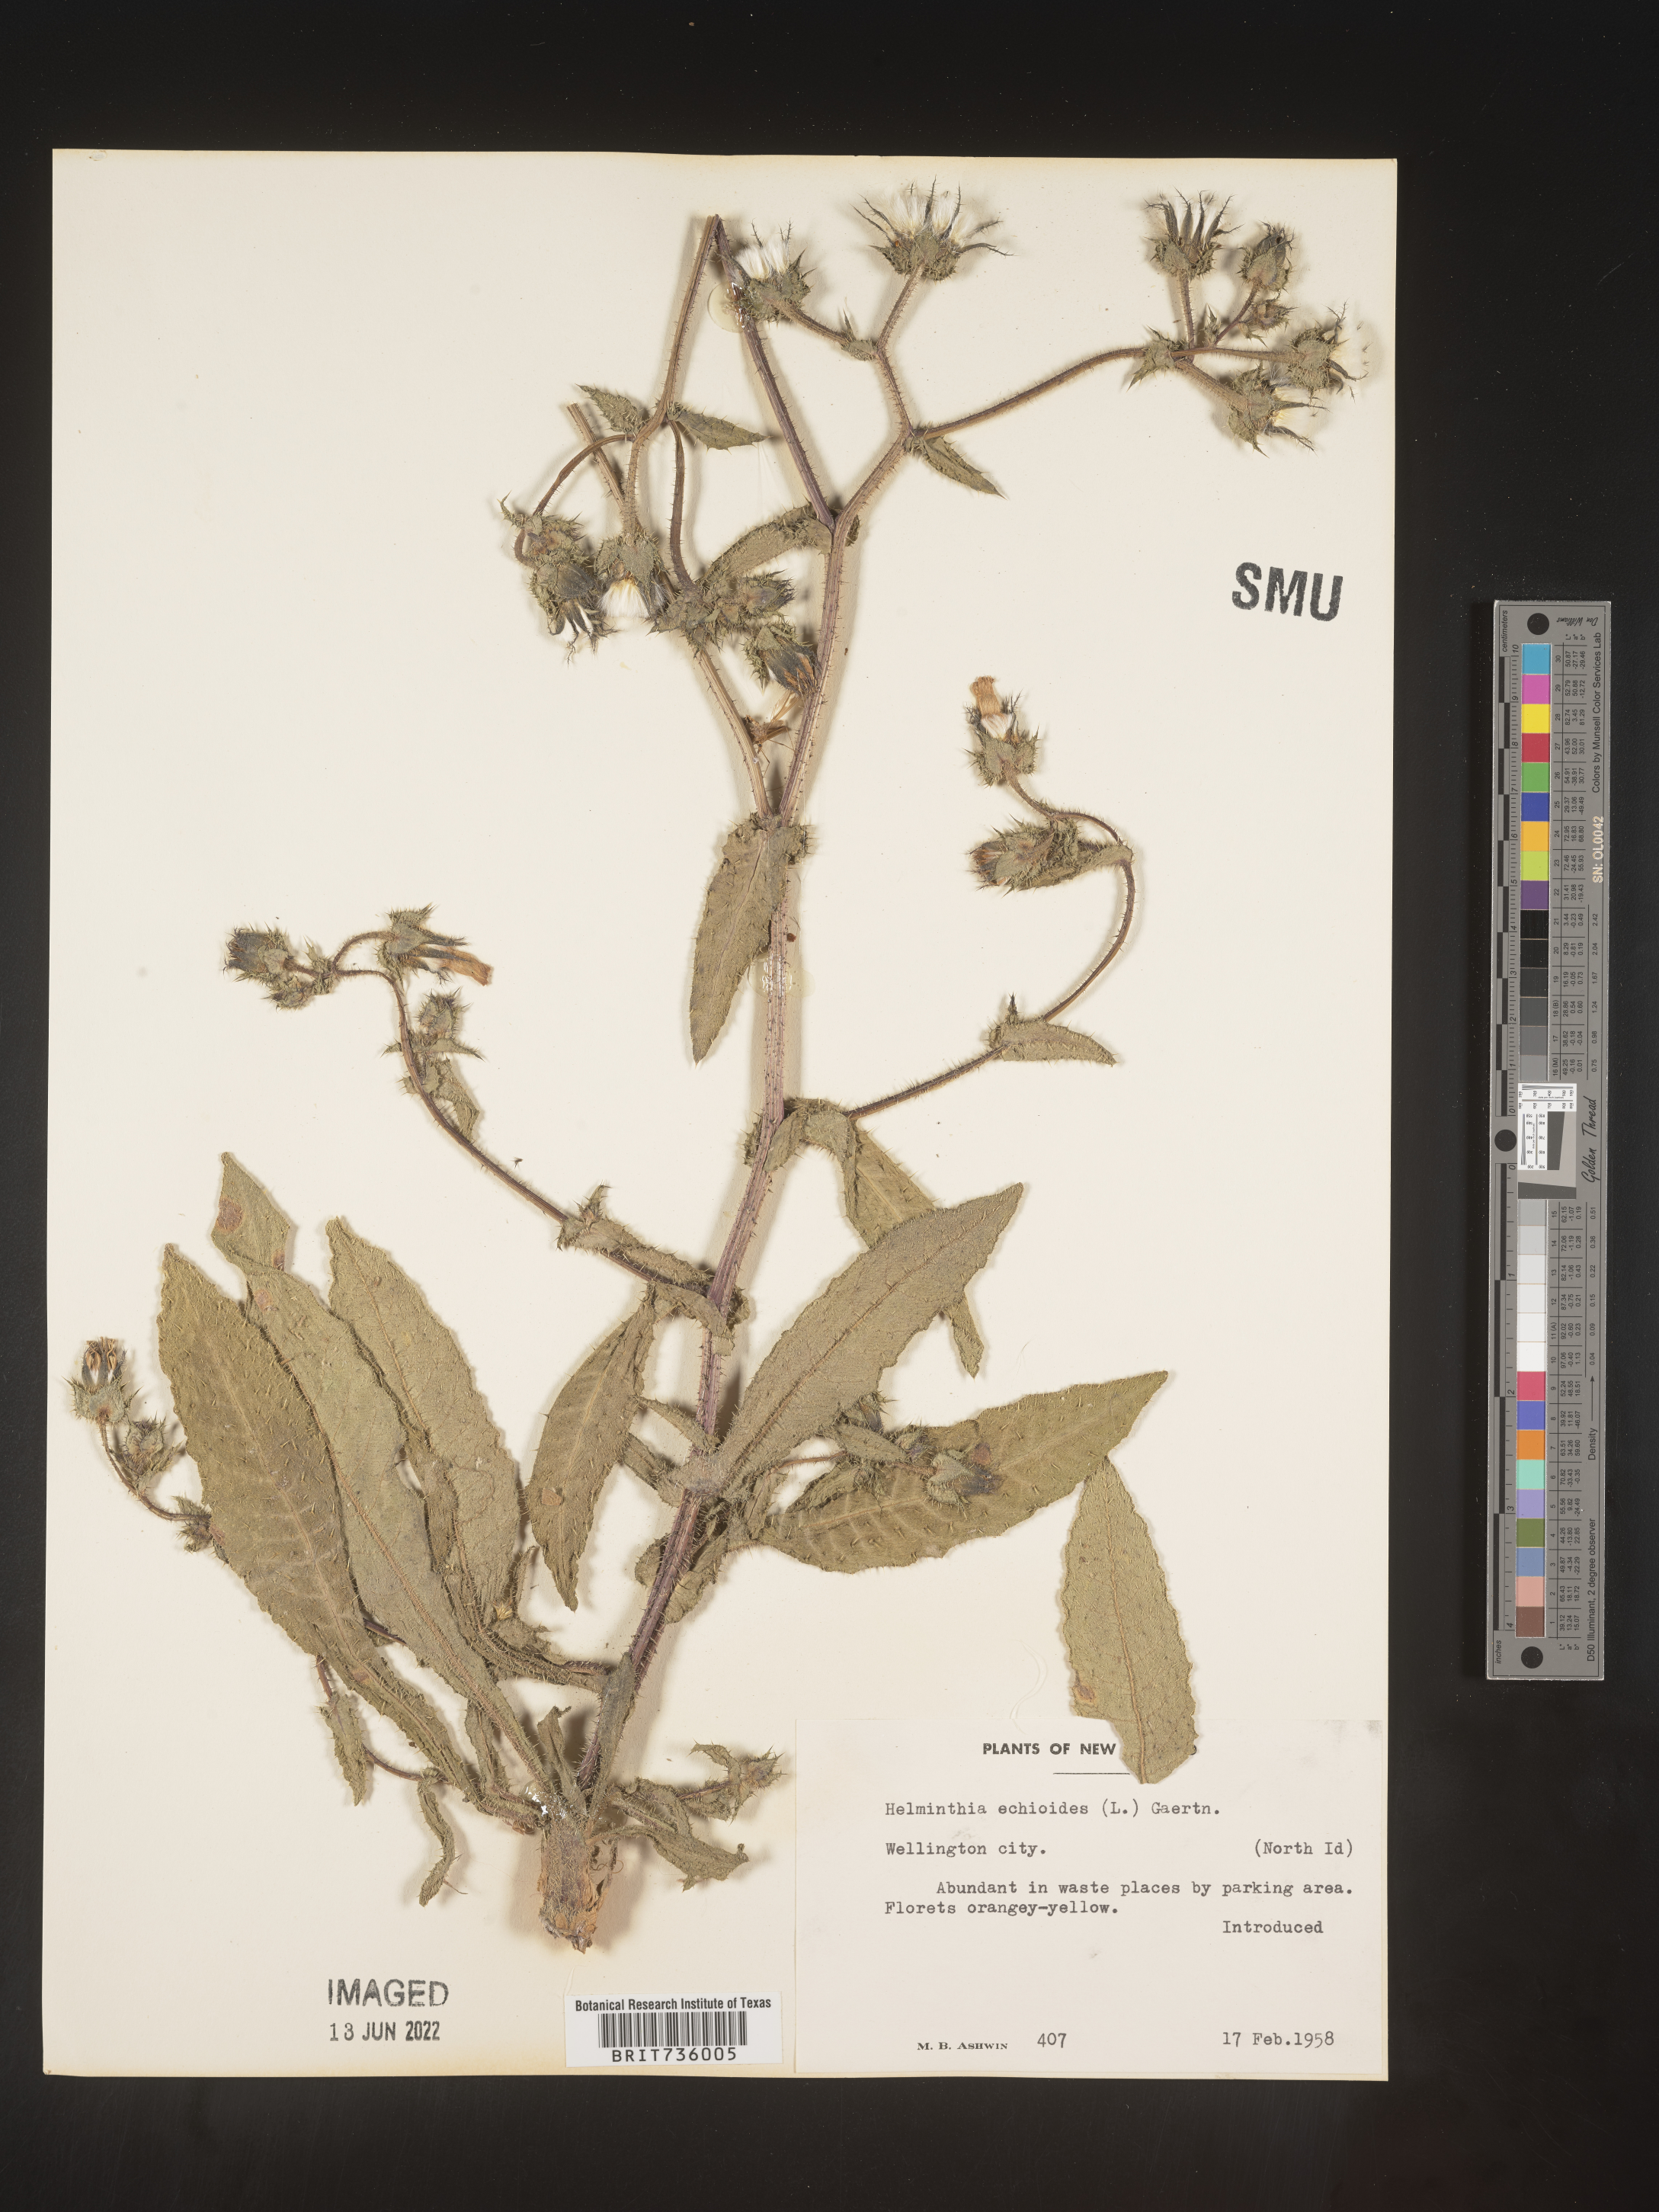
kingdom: Animalia
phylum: Mollusca
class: Gastropoda
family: Turritellidae
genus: Helminthia
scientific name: Helminthia
